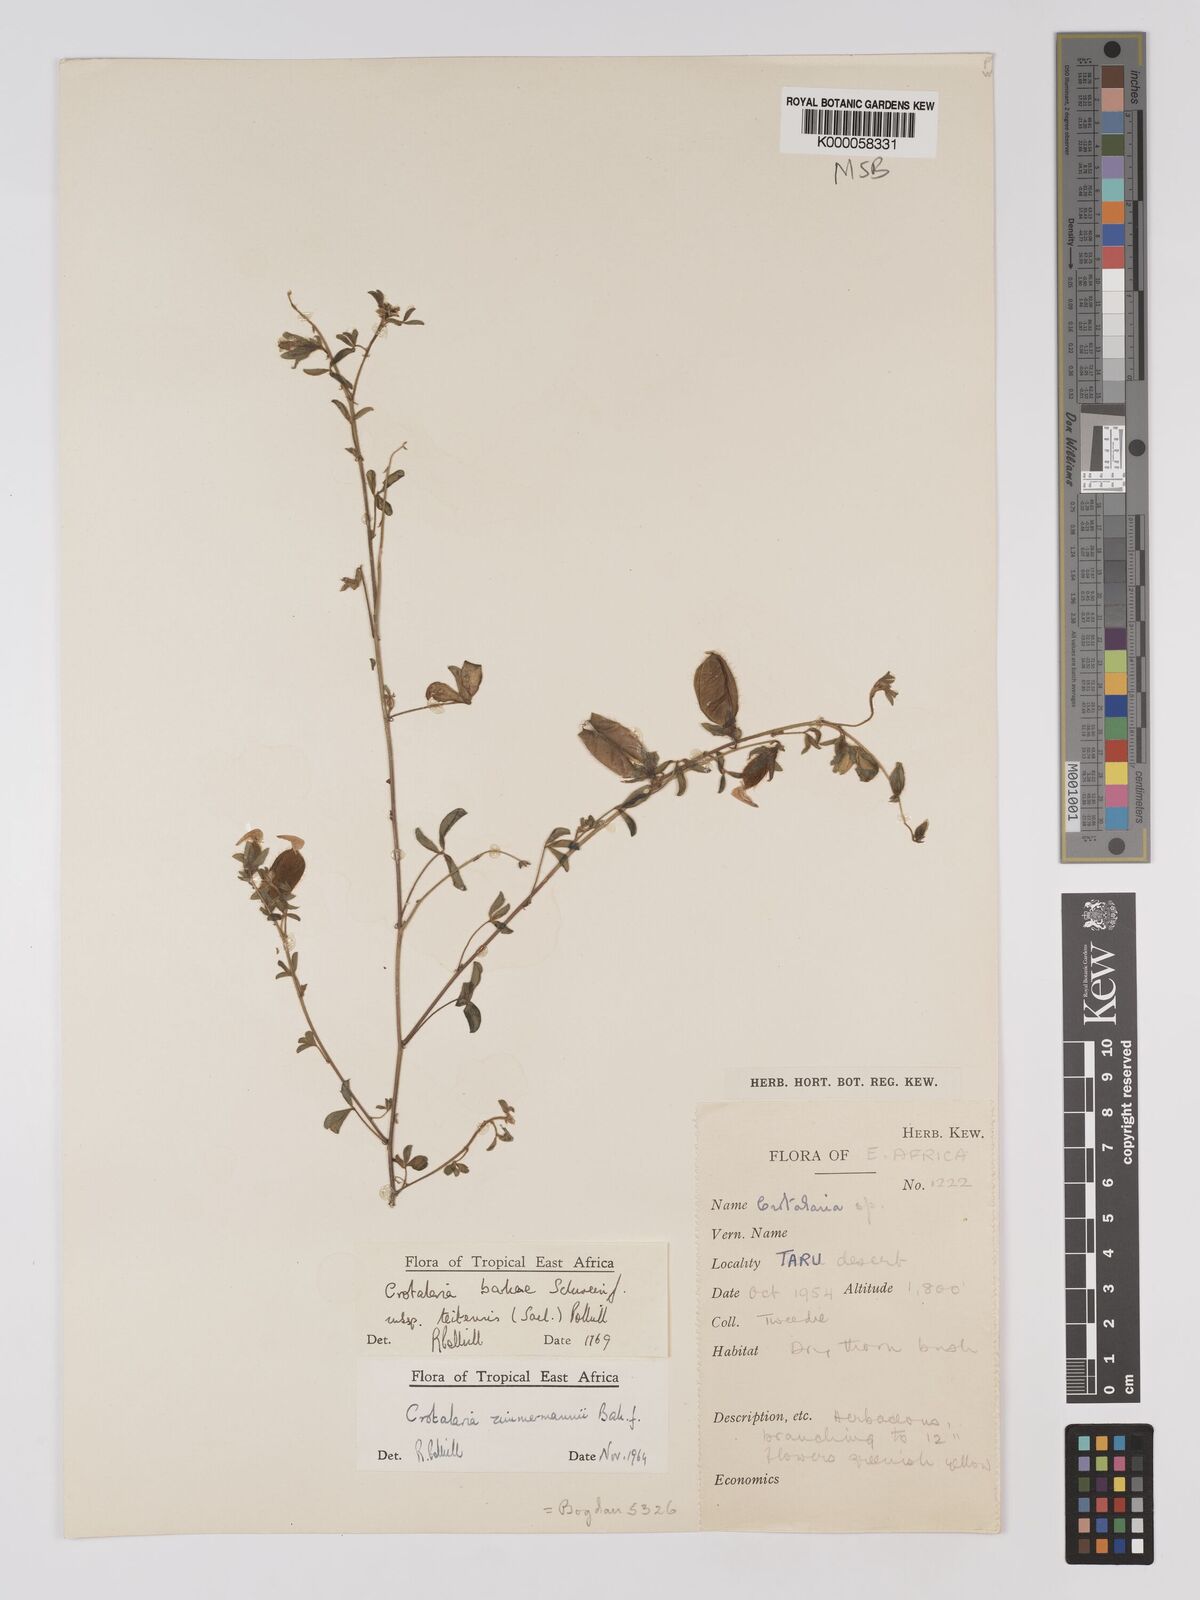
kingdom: Plantae
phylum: Tracheophyta
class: Magnoliopsida
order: Fabales
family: Fabaceae
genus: Crotalaria
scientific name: Crotalaria barkae
